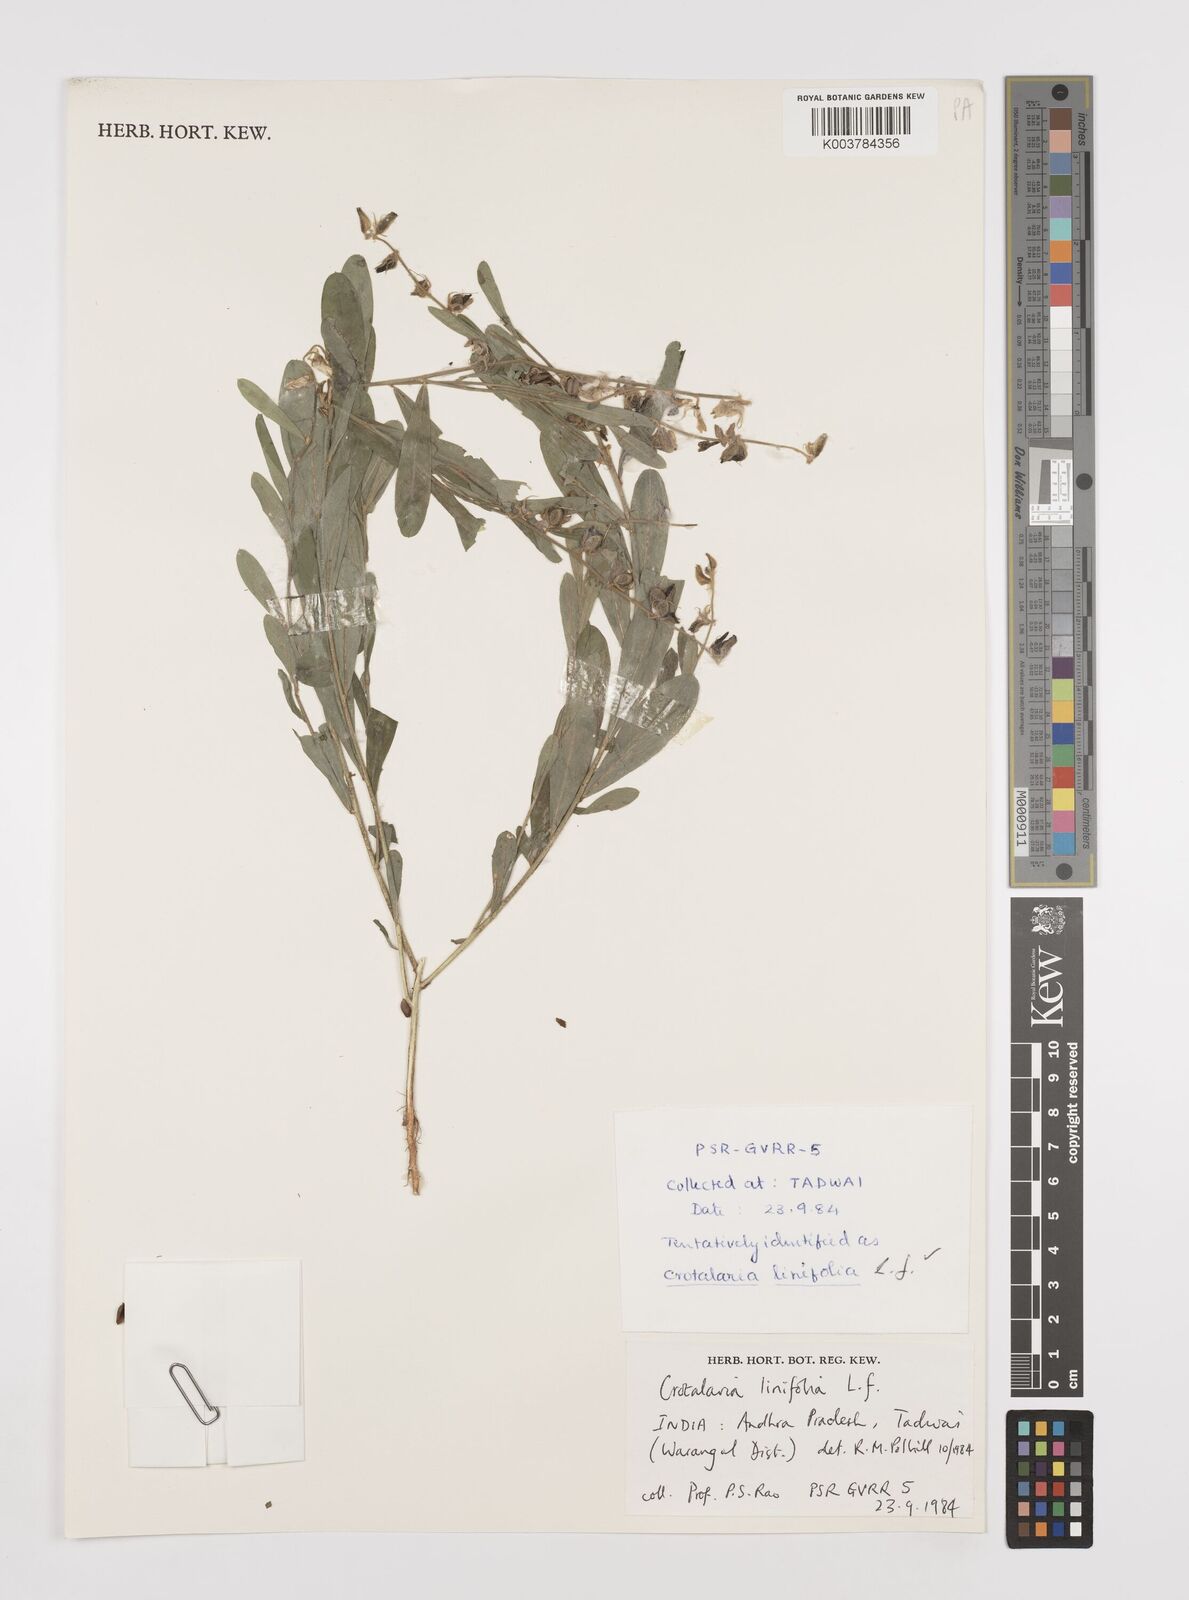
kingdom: Plantae
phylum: Tracheophyta
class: Magnoliopsida
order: Fabales
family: Fabaceae
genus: Crotalaria
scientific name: Crotalaria linifolia
